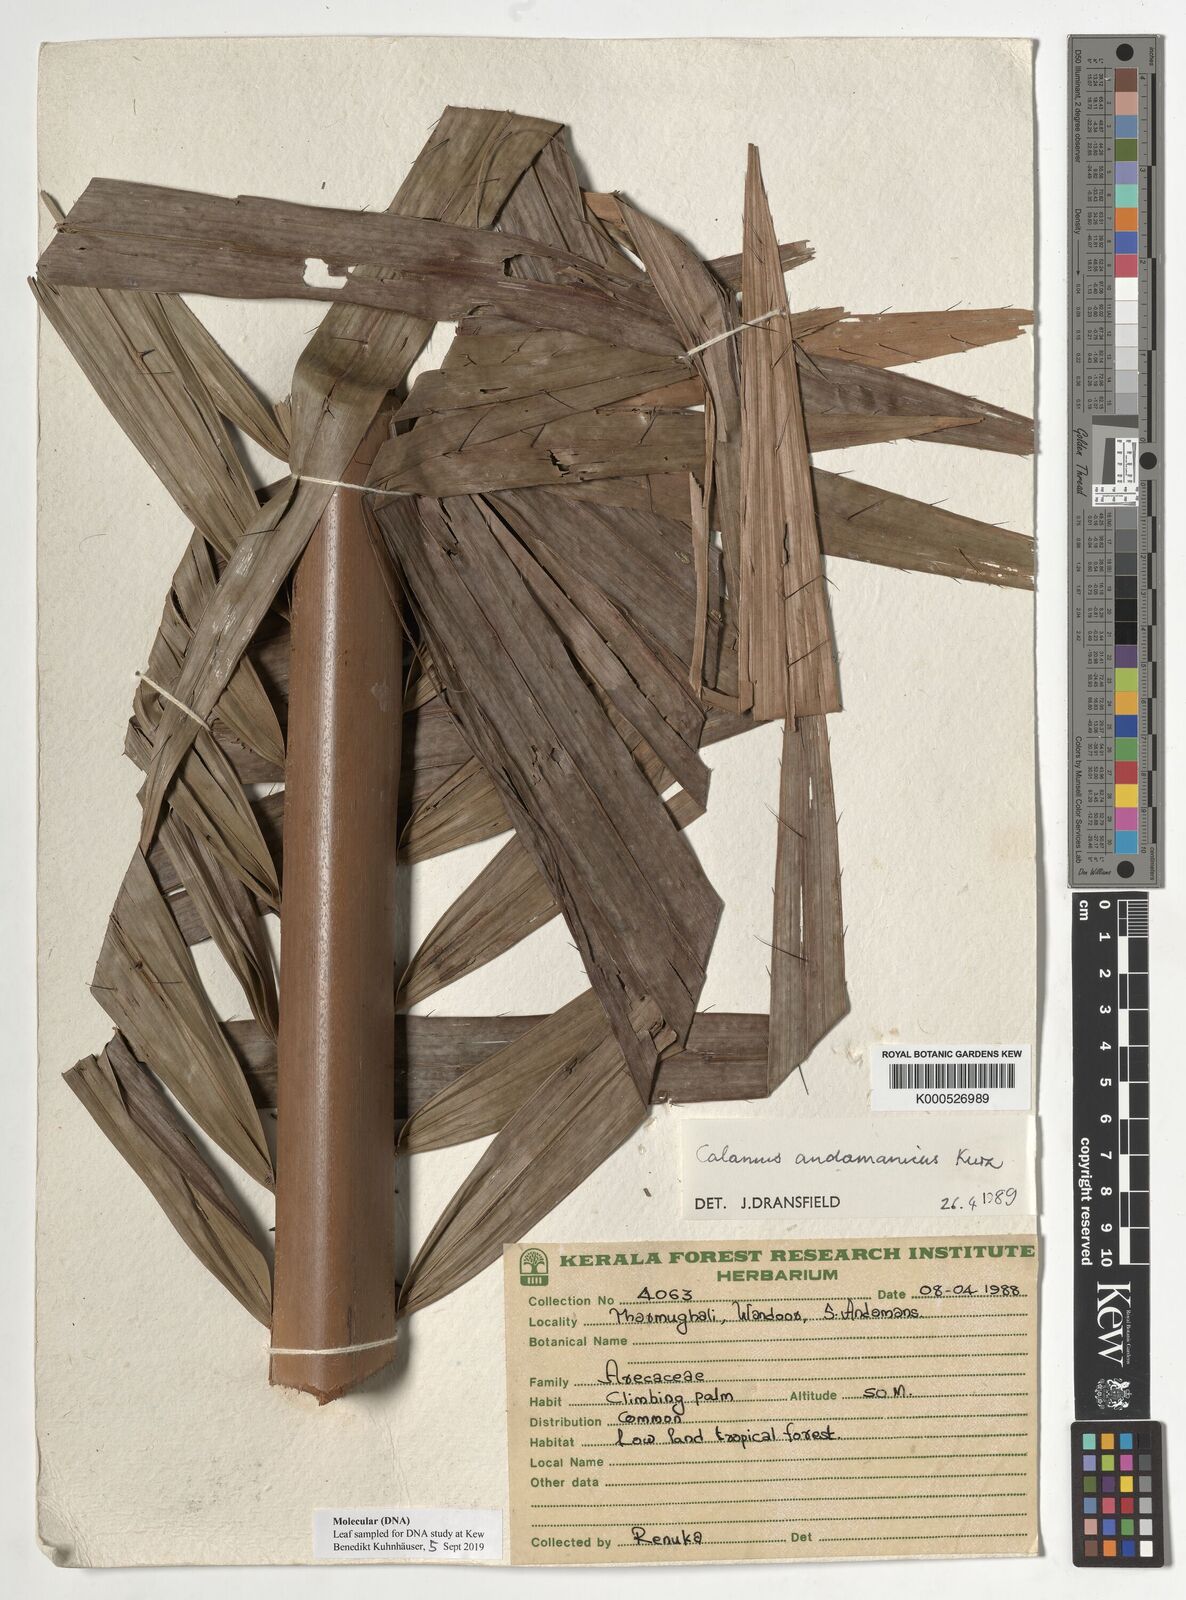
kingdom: Plantae
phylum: Tracheophyta
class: Liliopsida
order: Arecales
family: Arecaceae
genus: Calamus
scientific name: Calamus andamanicus
